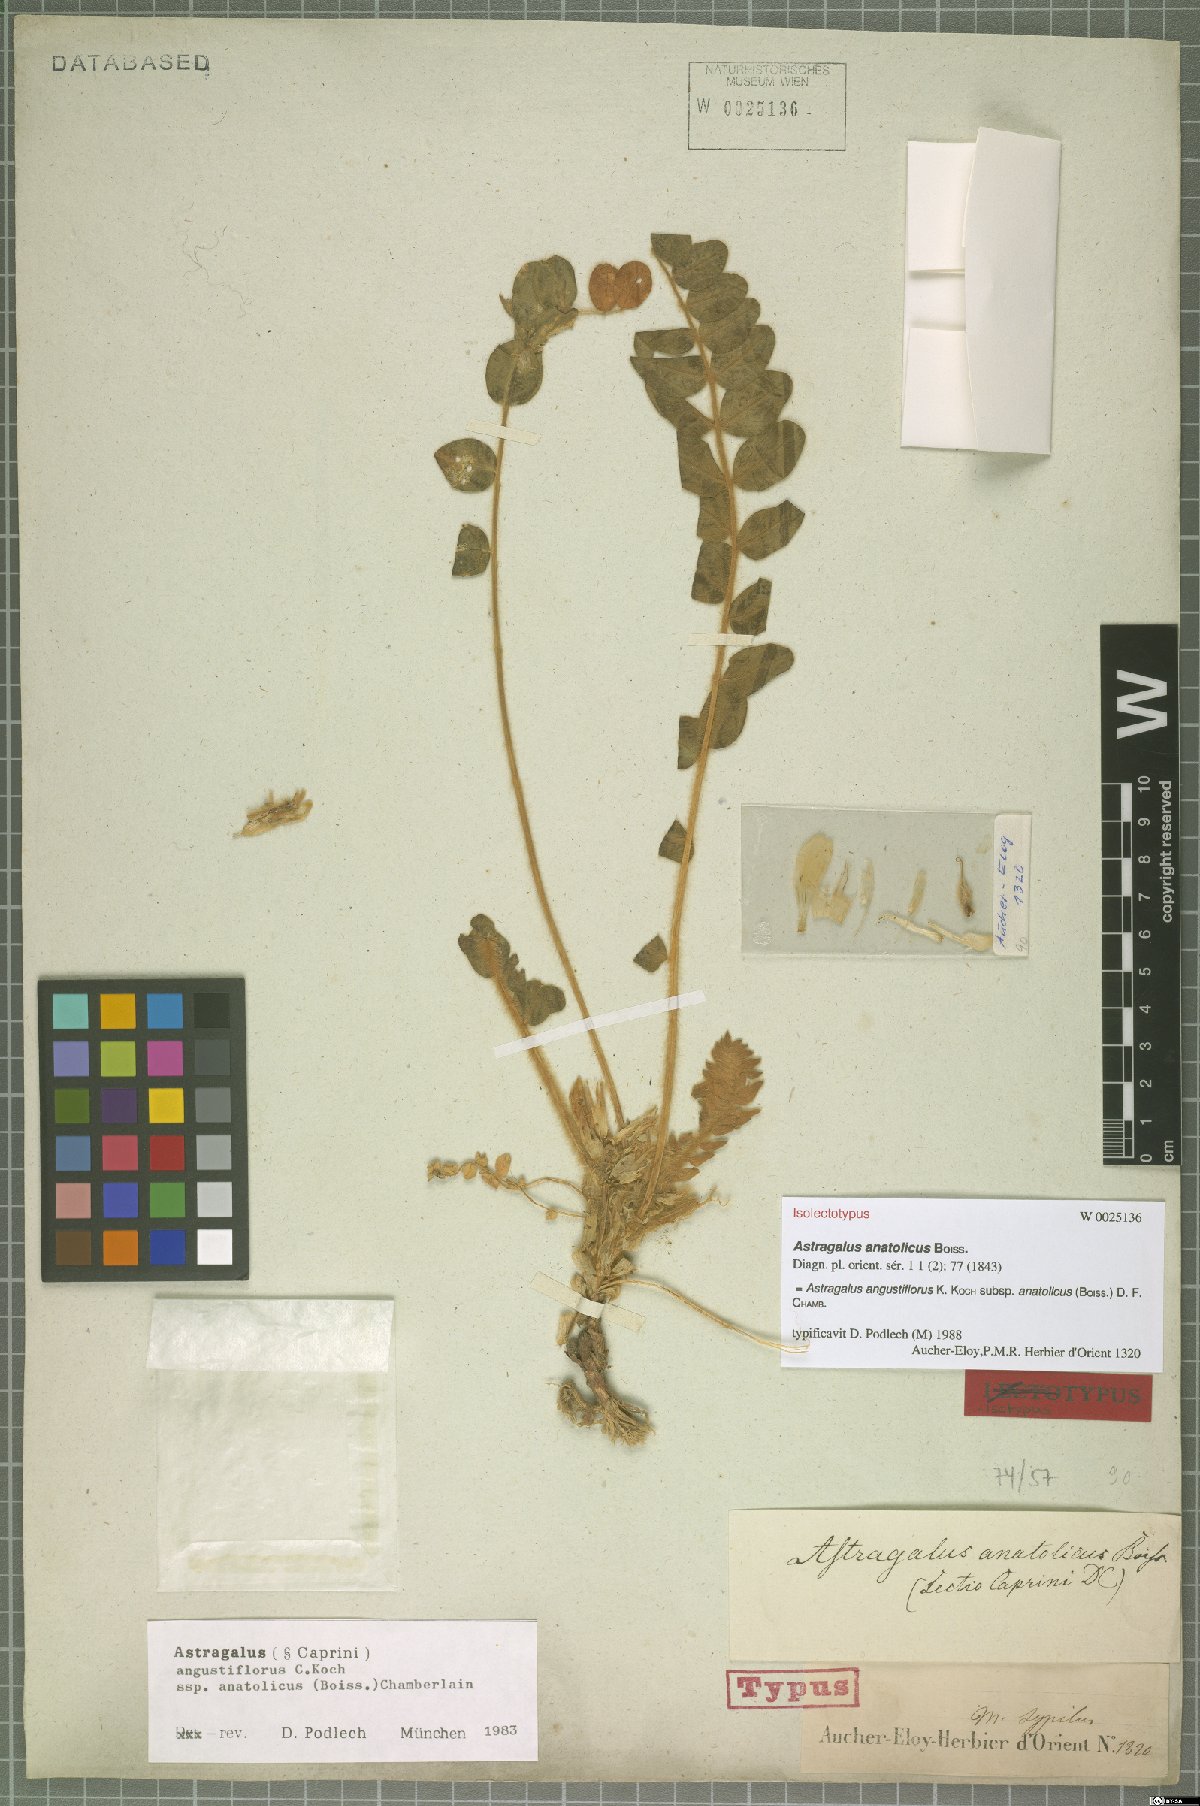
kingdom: Plantae
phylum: Tracheophyta
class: Magnoliopsida
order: Fabales
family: Fabaceae
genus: Astragalus
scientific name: Astragalus angustiflorus
